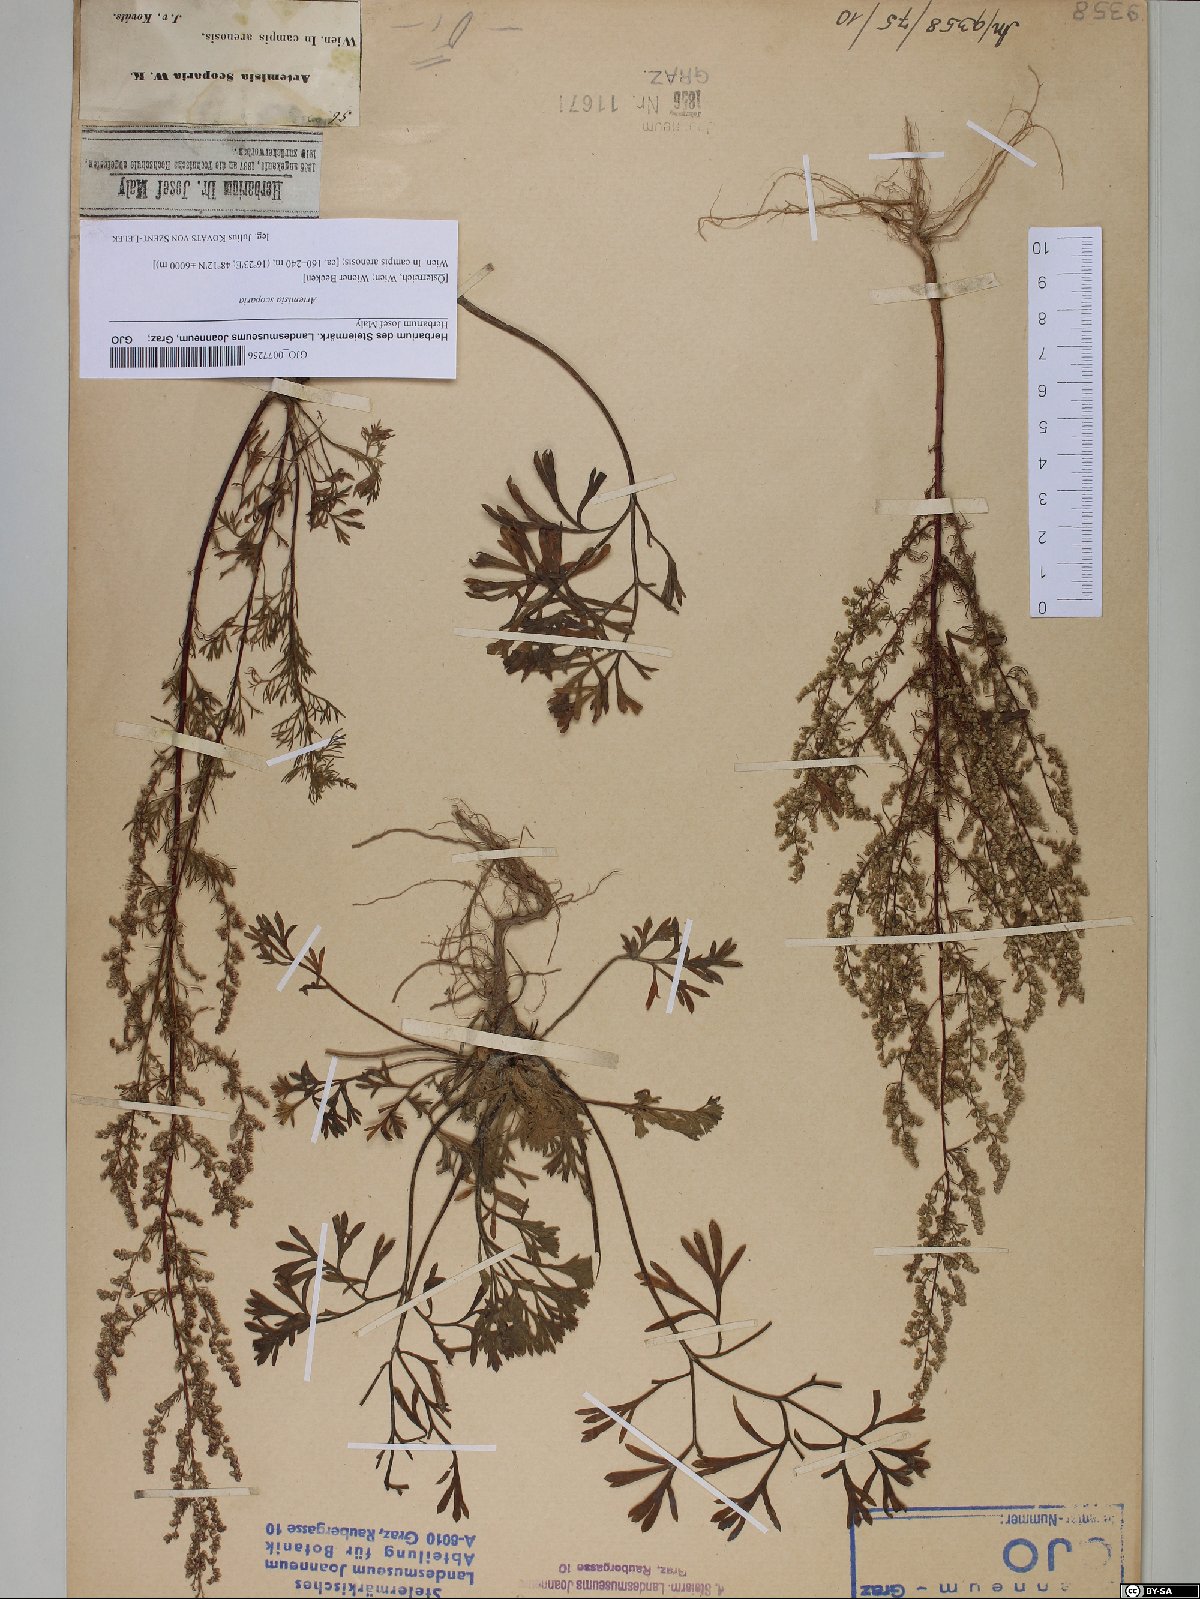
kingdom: Plantae
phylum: Tracheophyta
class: Magnoliopsida
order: Asterales
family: Asteraceae
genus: Artemisia
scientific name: Artemisia scoparia
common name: Redstem wormwood
